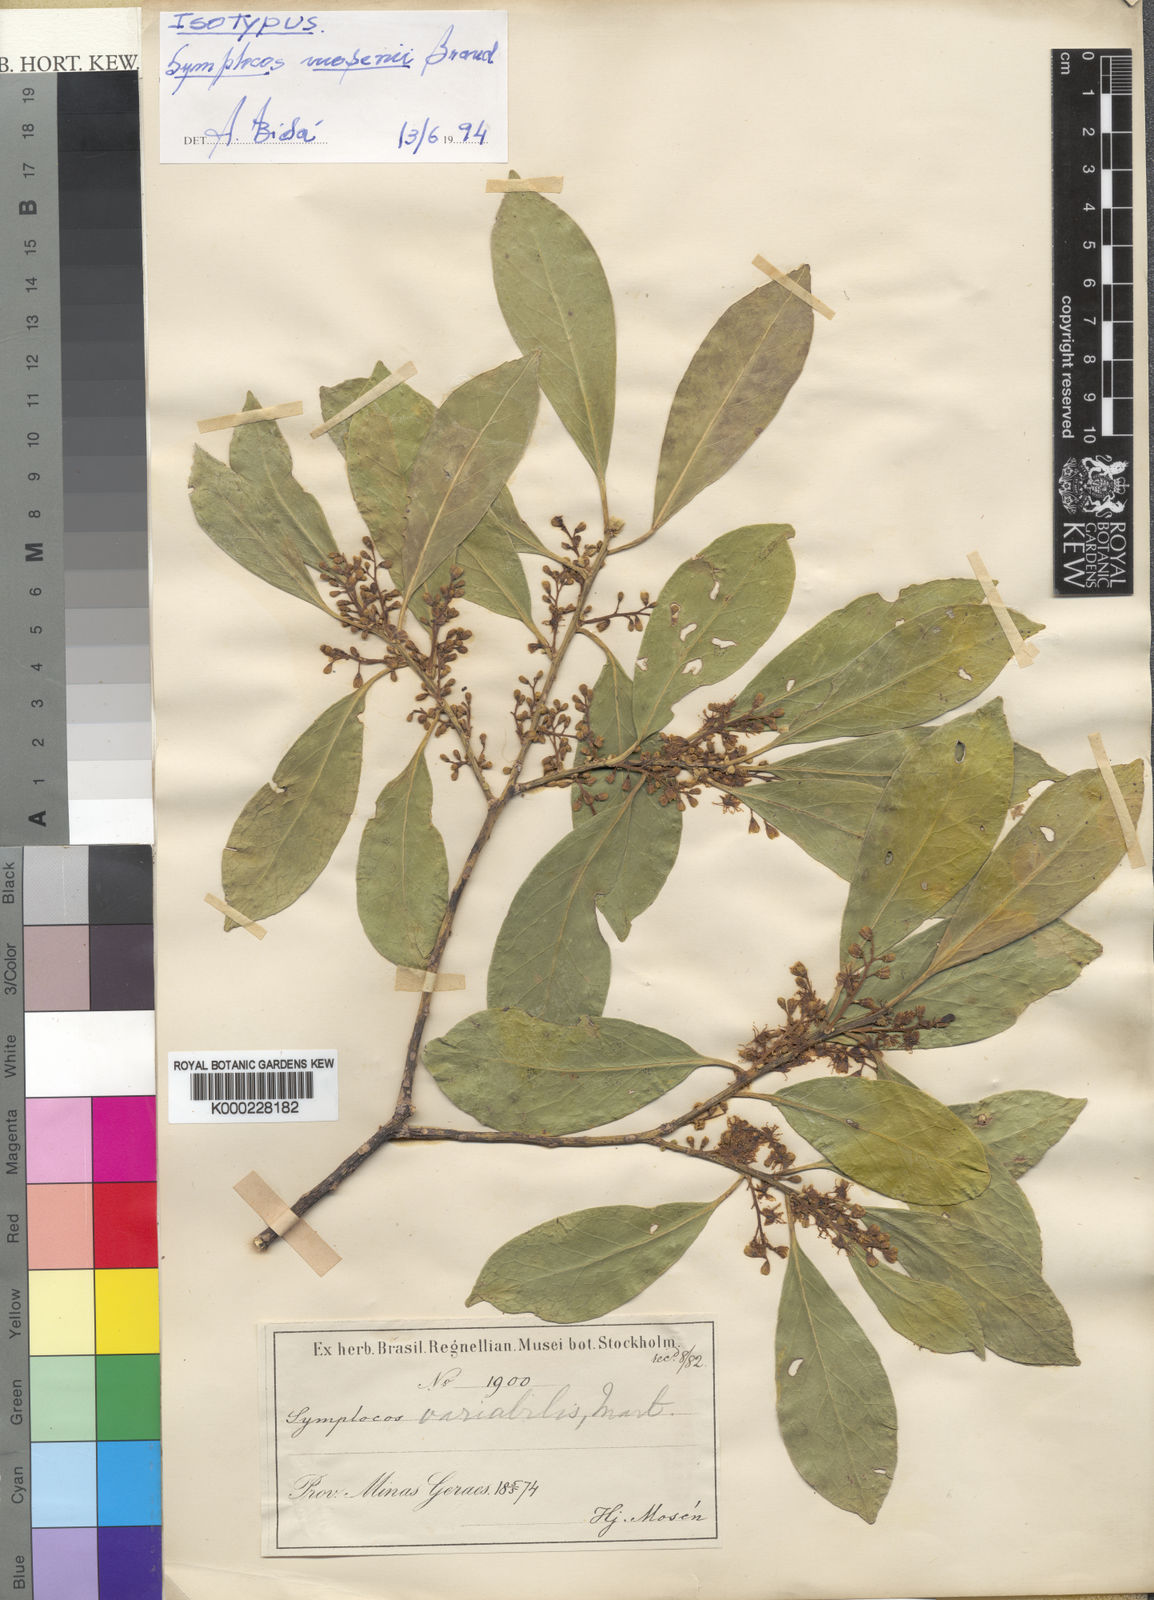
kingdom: Plantae
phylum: Tracheophyta
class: Magnoliopsida
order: Ericales
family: Symplocaceae
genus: Symplocos
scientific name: Symplocos revoluta
